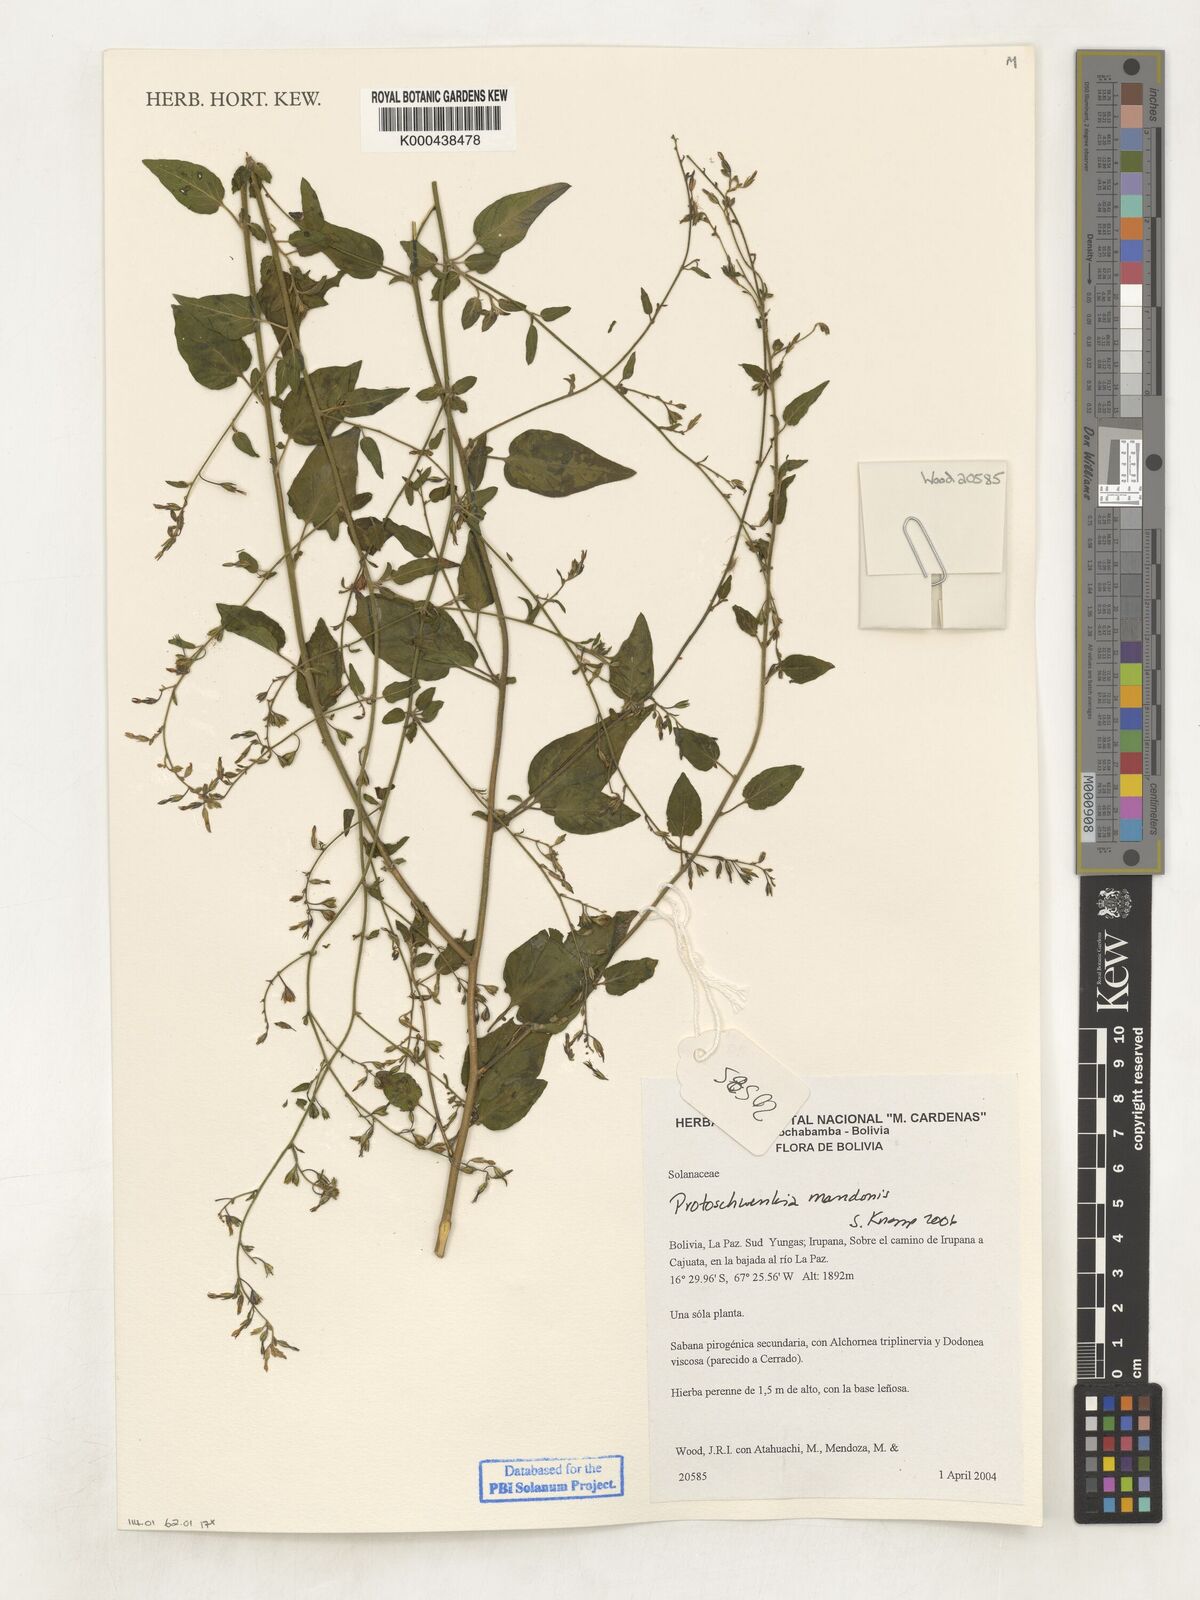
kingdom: Plantae
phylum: Tracheophyta
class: Magnoliopsida
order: Solanales
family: Solanaceae
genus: Protoschwenckia
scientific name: Protoschwenckia mandonii
